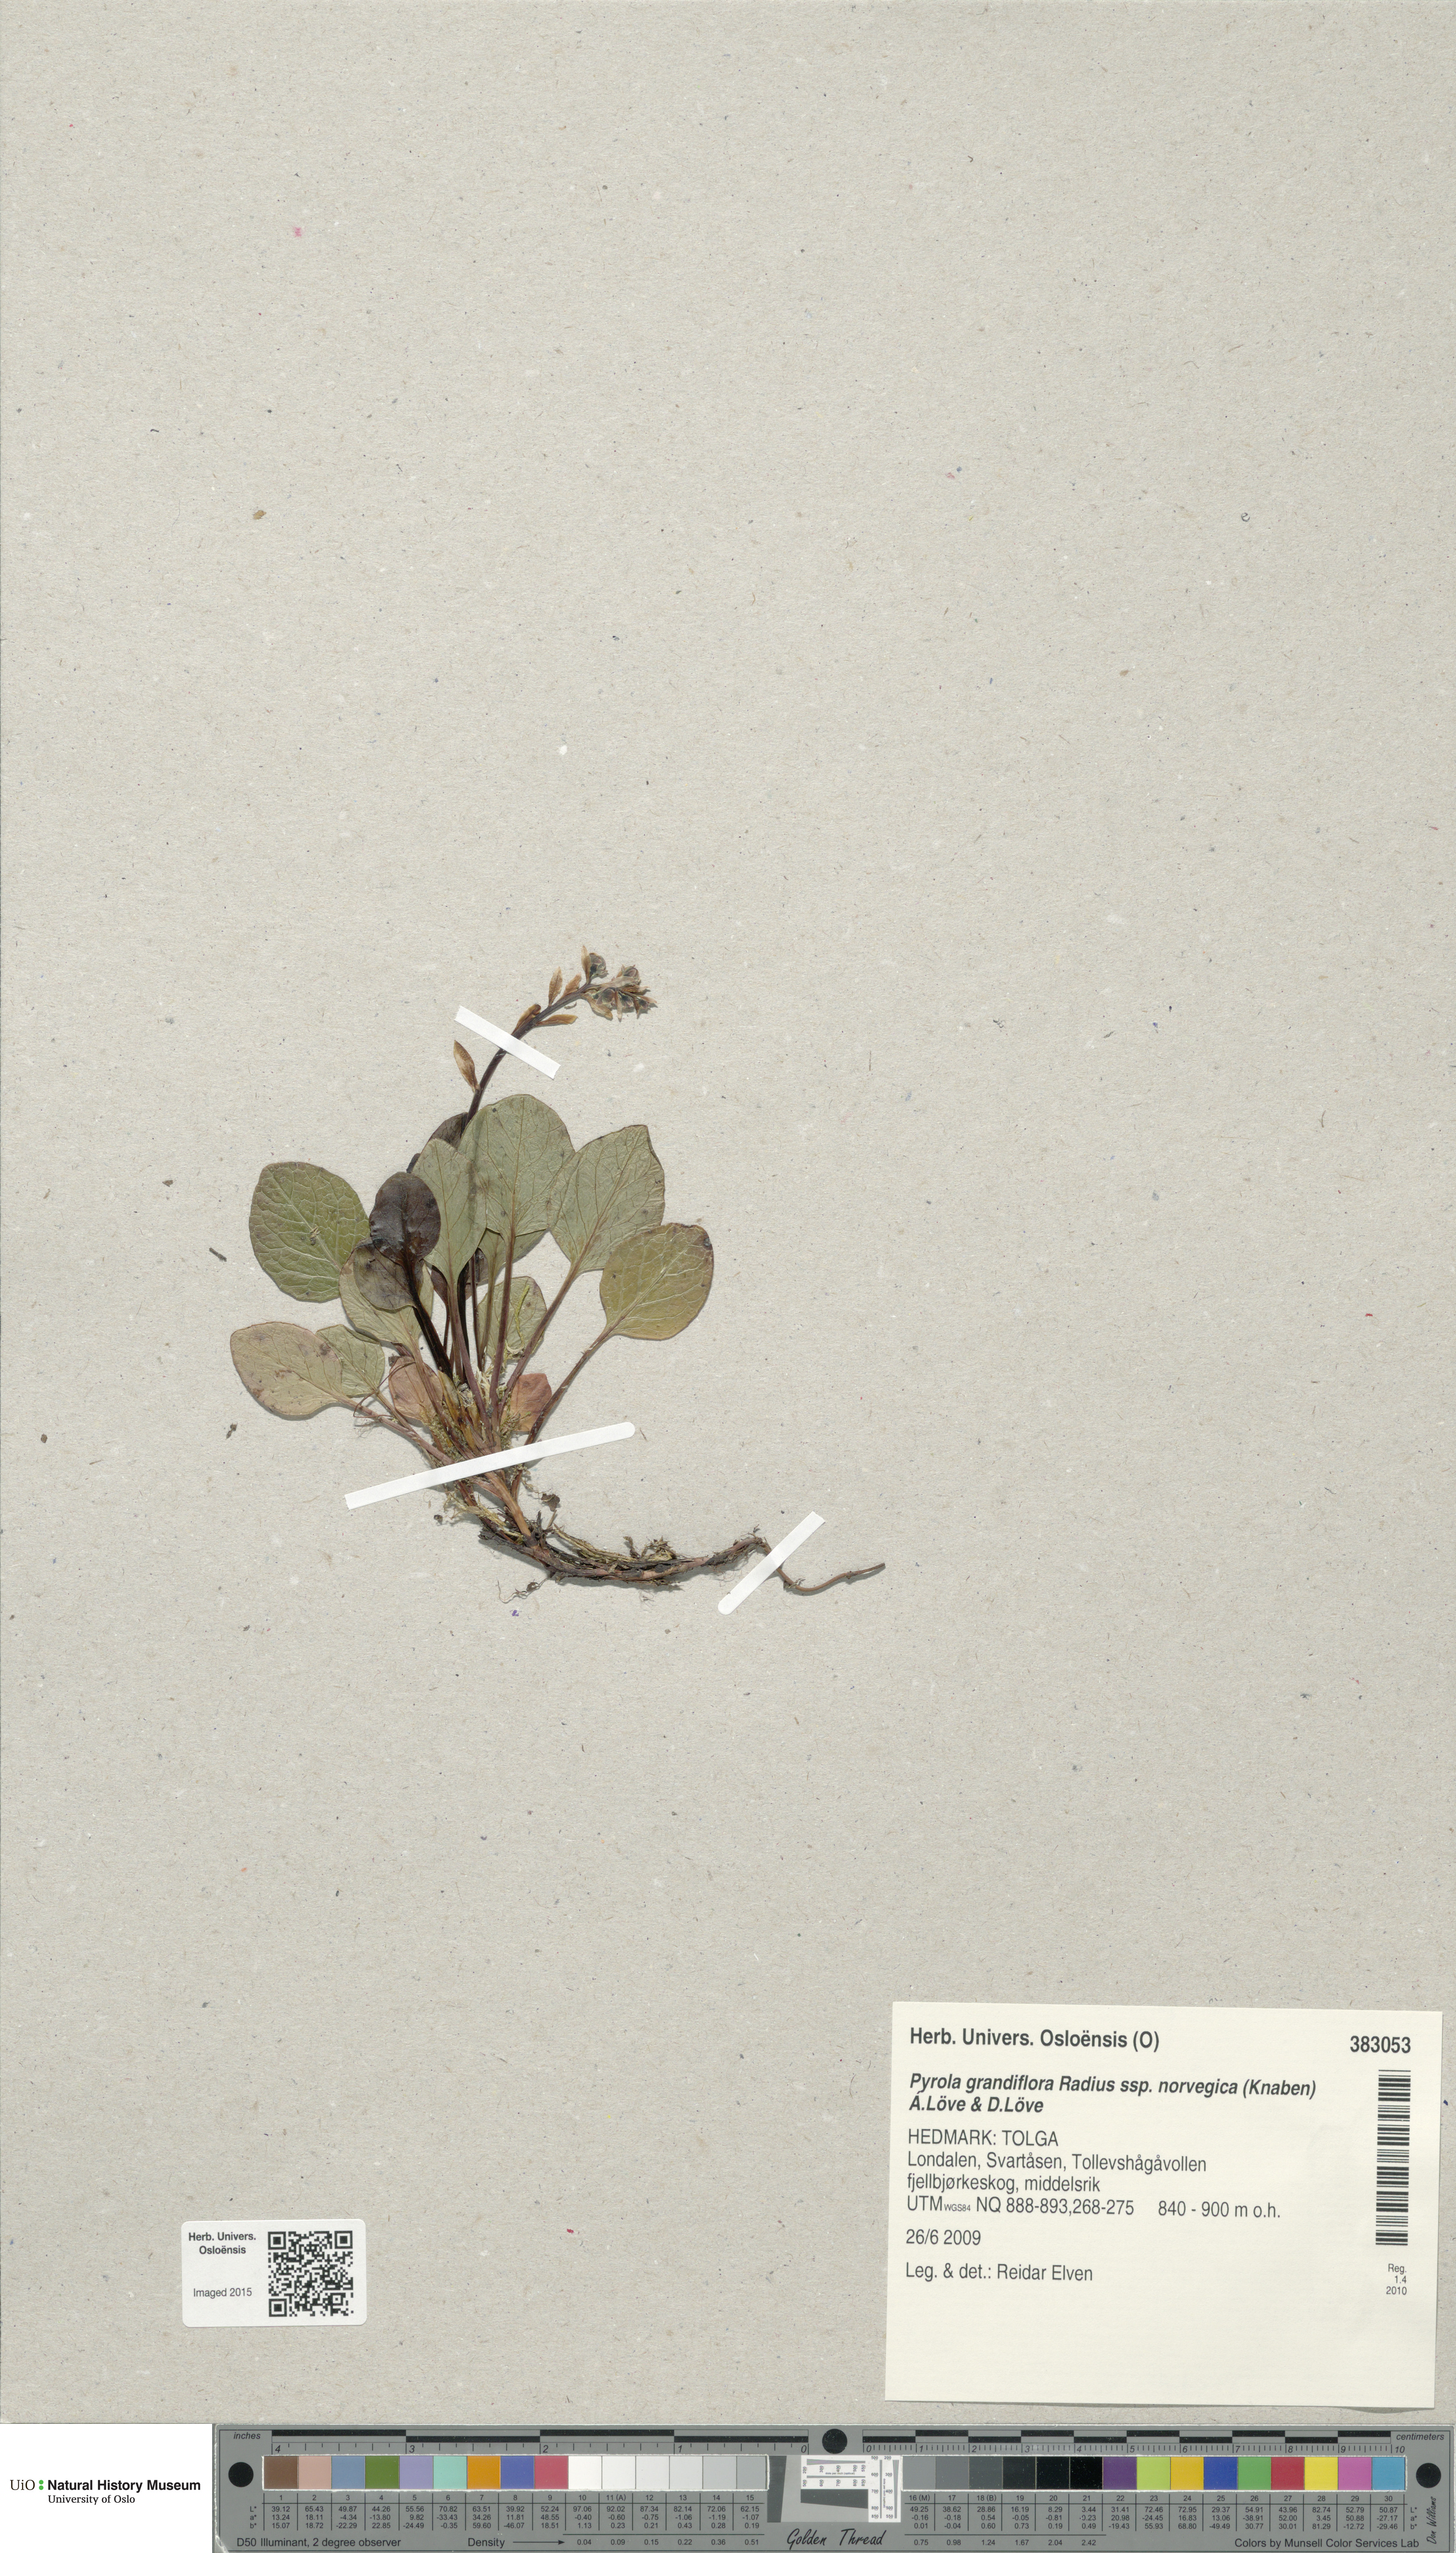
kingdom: Plantae
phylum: Tracheophyta
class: Magnoliopsida
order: Ericales
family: Ericaceae
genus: Pyrola
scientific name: Pyrola rotundifolia
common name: Round-leaved wintergreen
